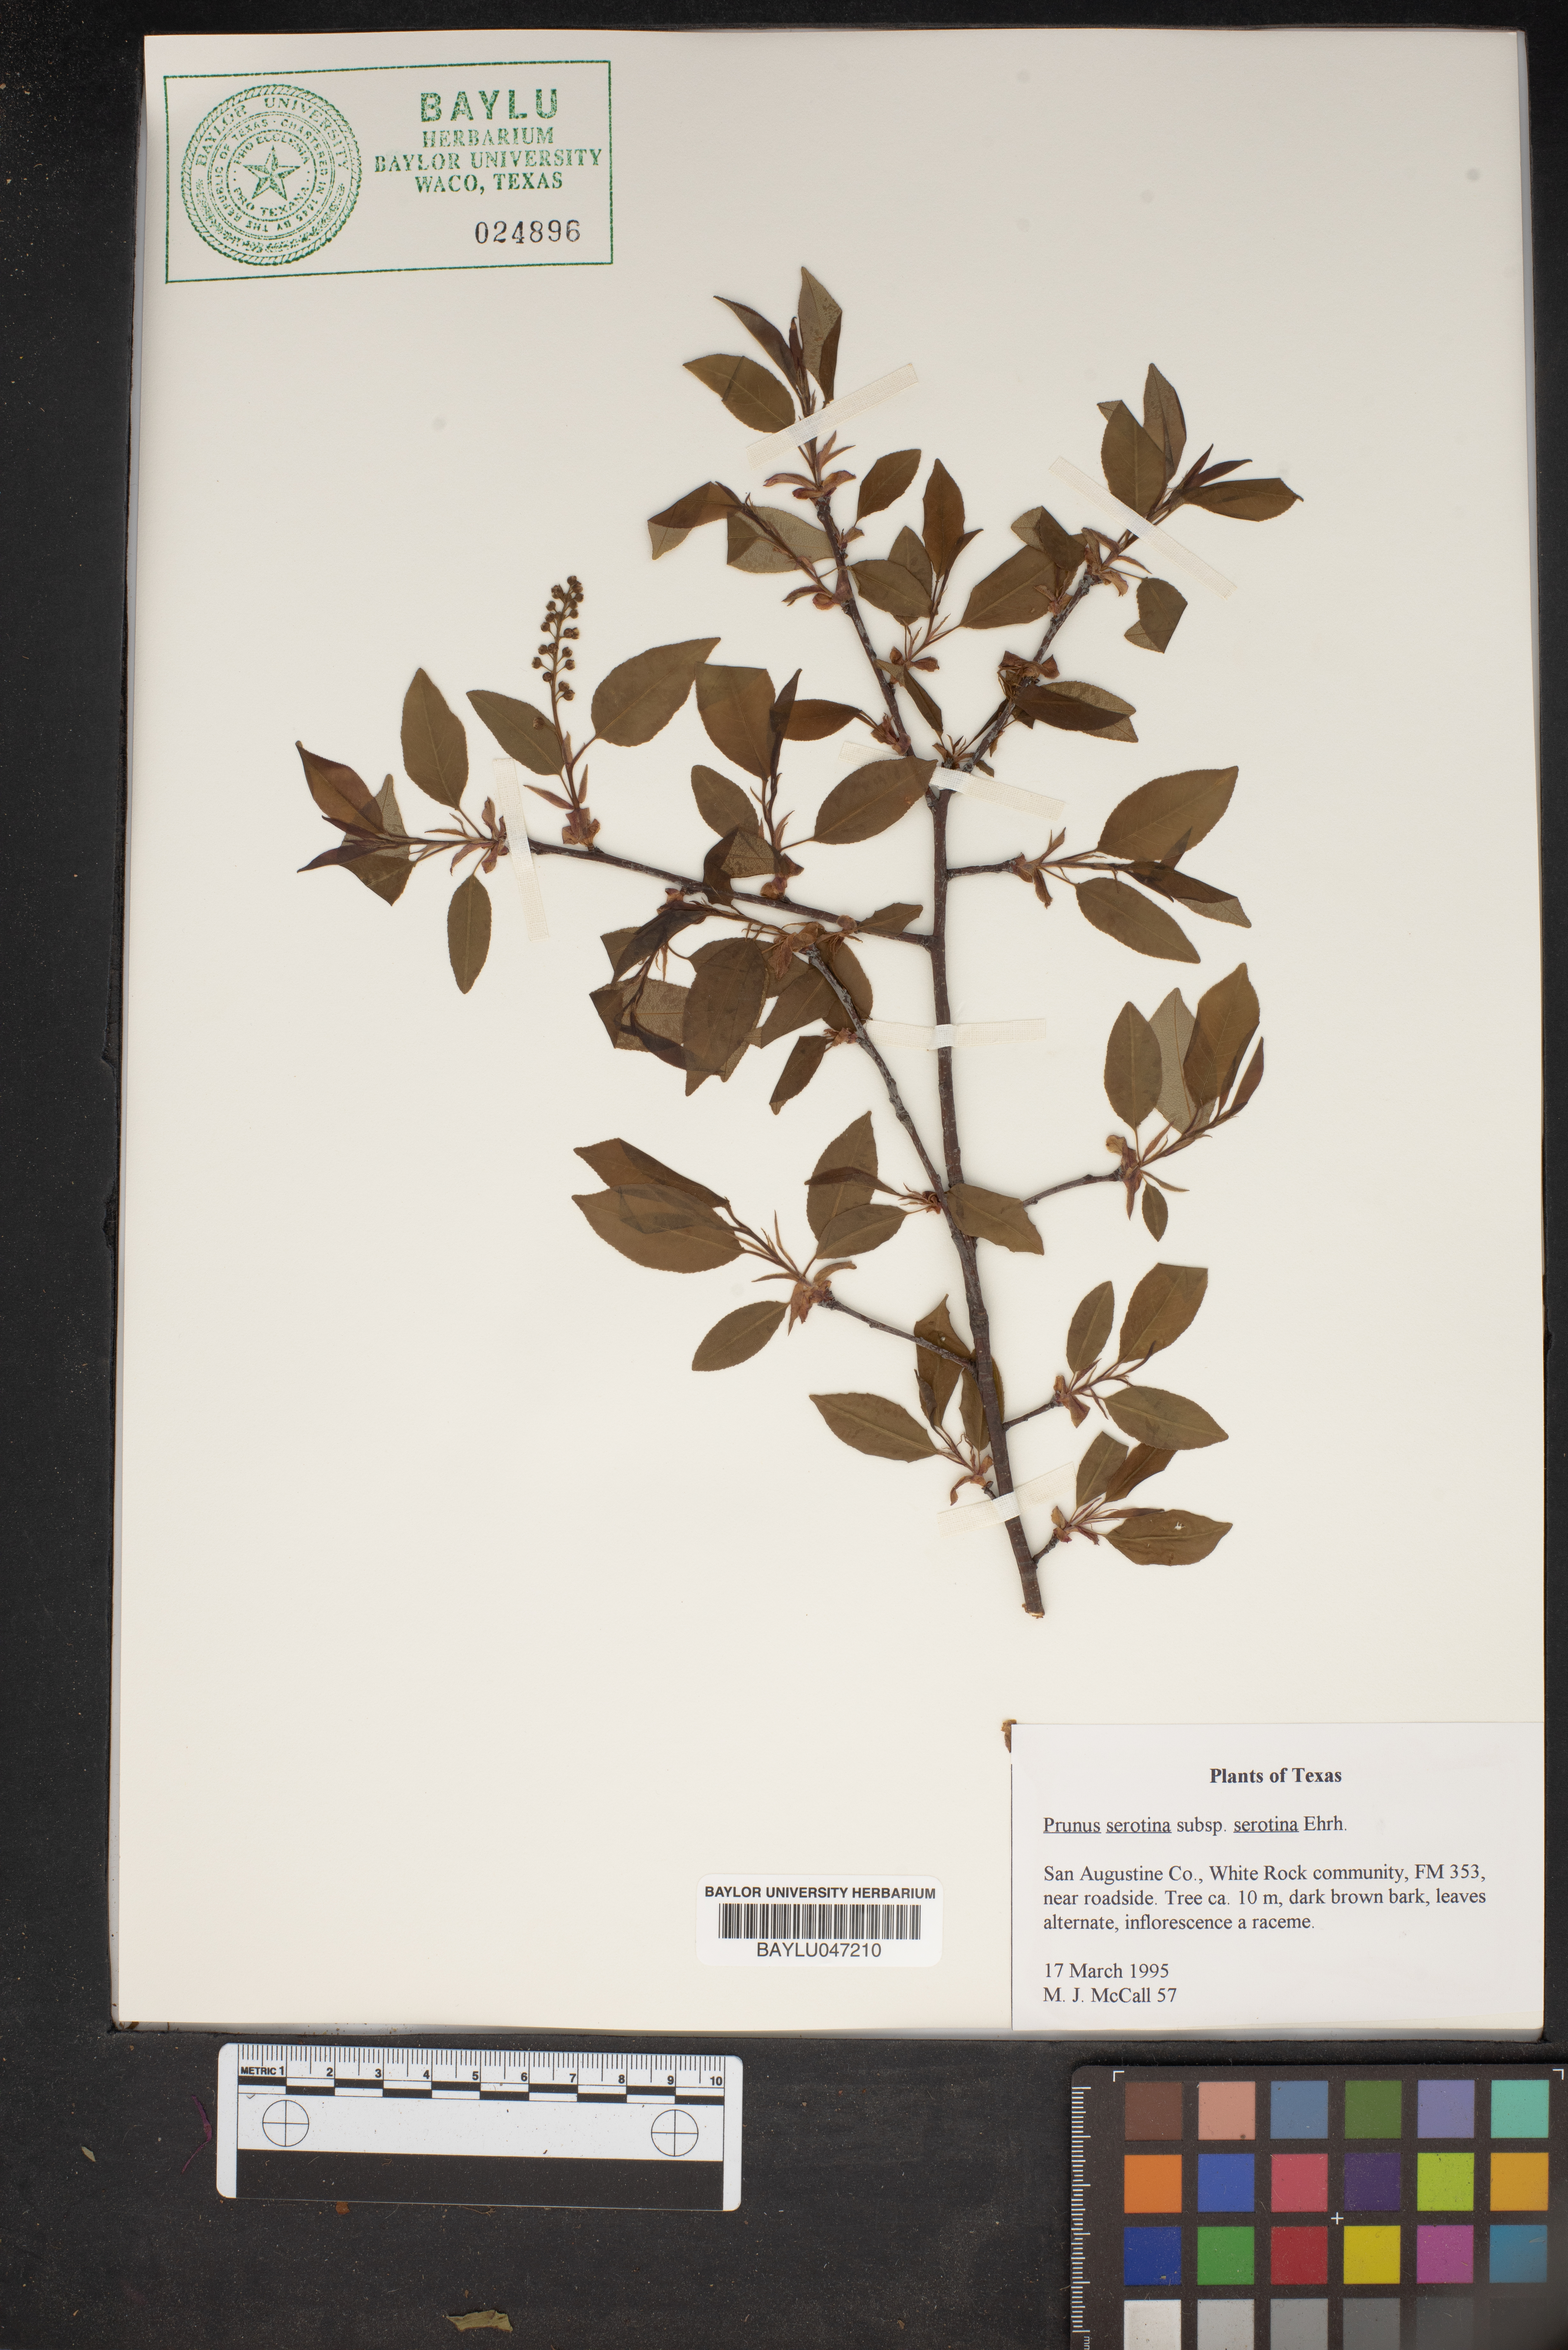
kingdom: Plantae
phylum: Tracheophyta
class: Magnoliopsida
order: Rosales
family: Rosaceae
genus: Prunus
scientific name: Prunus serotina
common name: Black cherry
